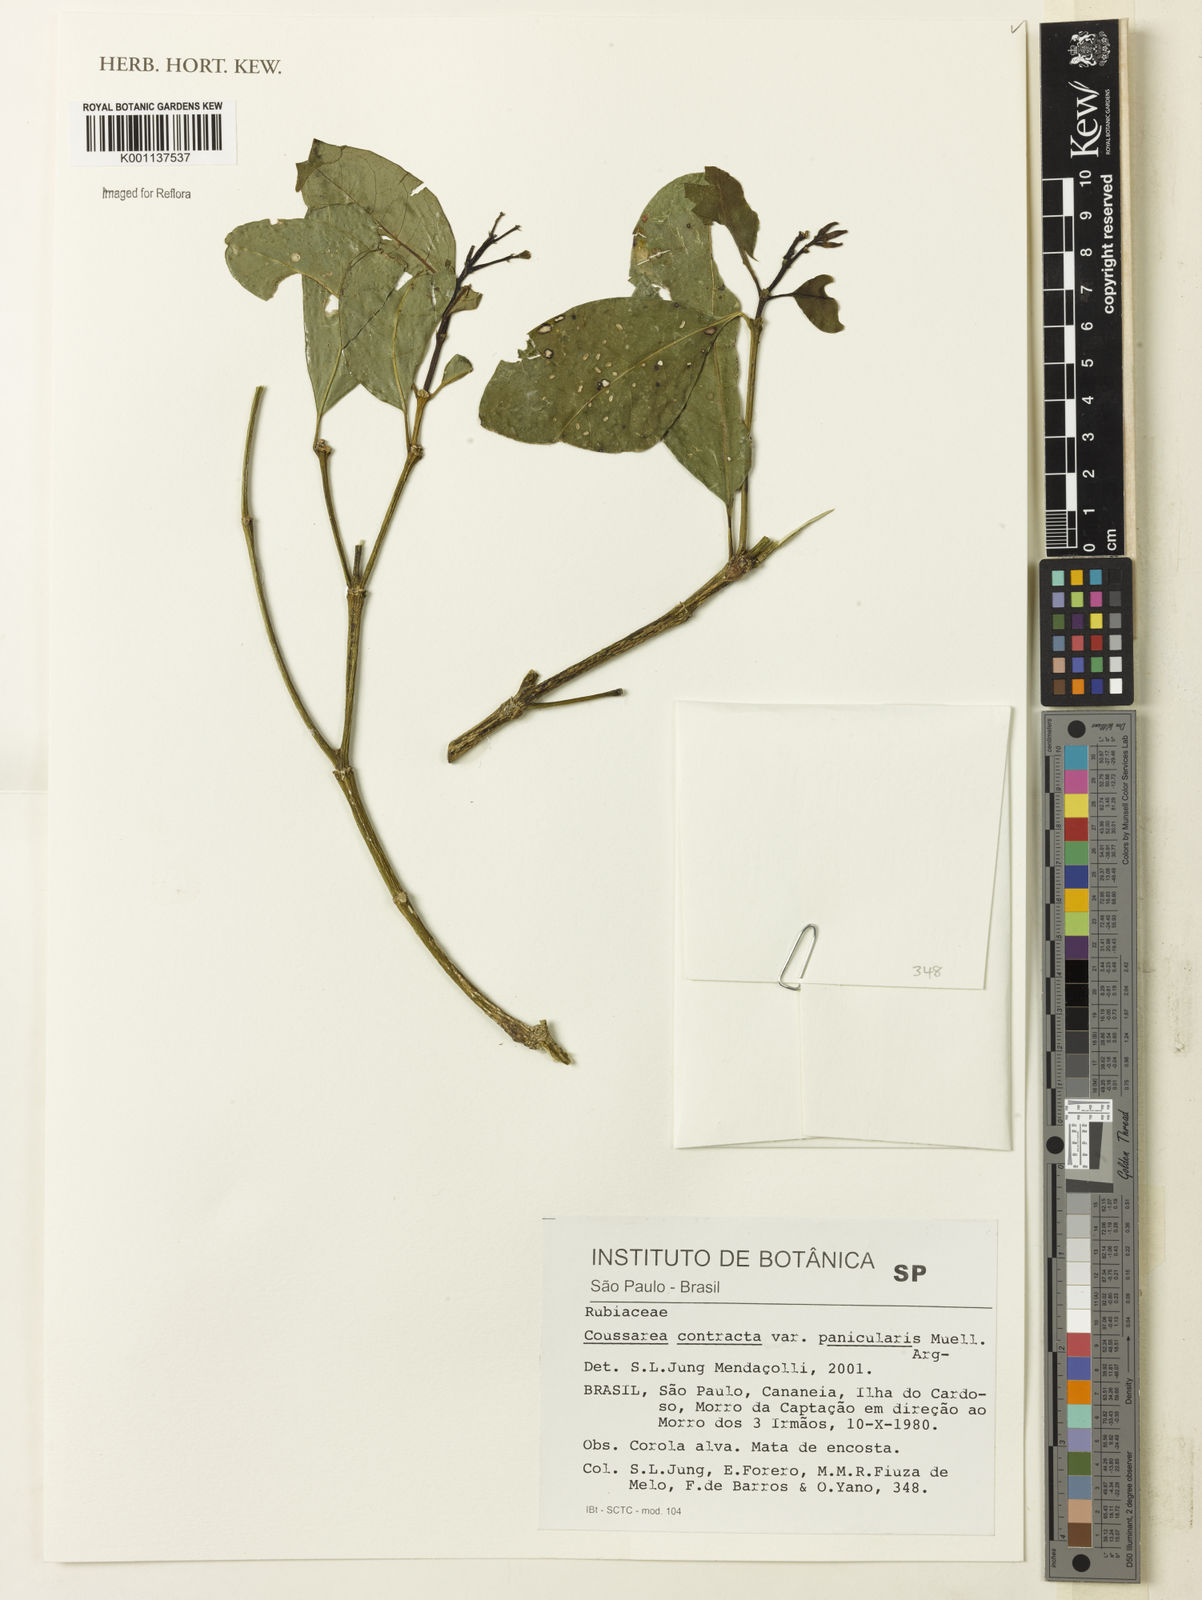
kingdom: Plantae
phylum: Tracheophyta
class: Magnoliopsida
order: Gentianales
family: Rubiaceae
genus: Coussarea
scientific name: Coussarea
